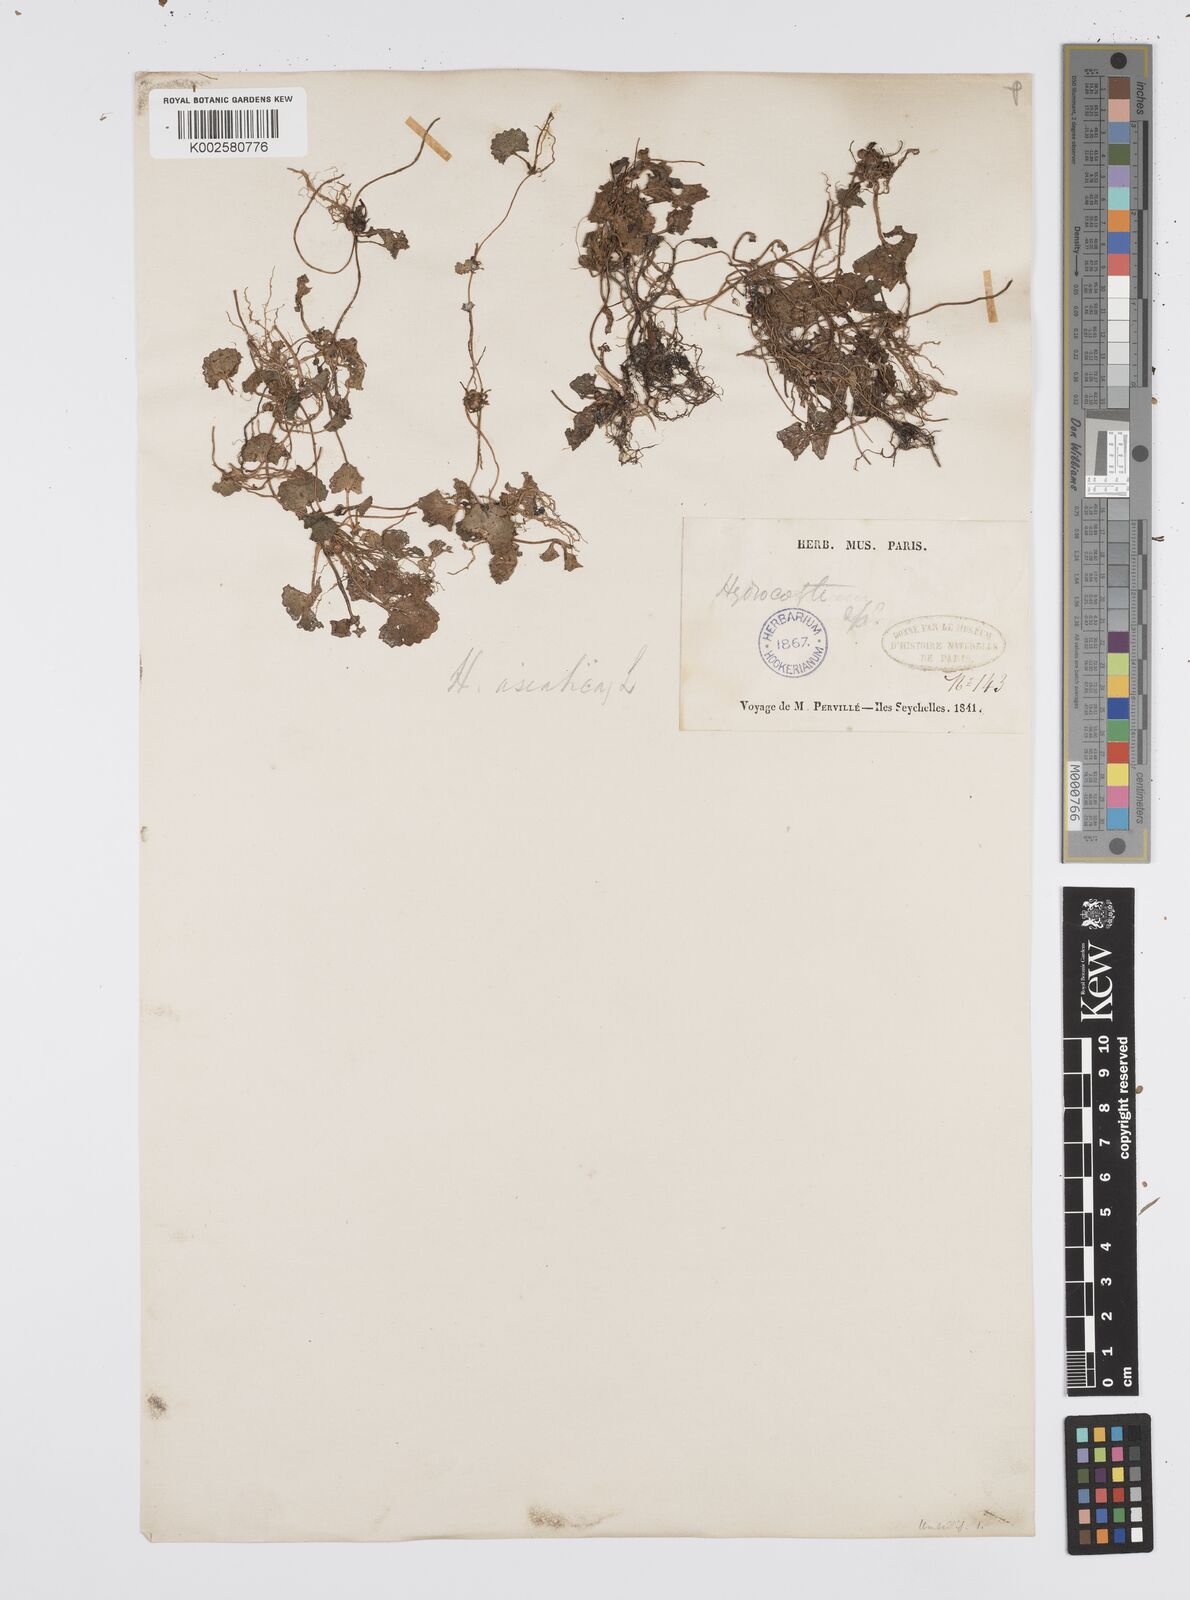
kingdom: Plantae
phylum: Tracheophyta
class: Magnoliopsida
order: Apiales
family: Apiaceae
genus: Centella
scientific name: Centella asiatica
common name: Spadeleaf
